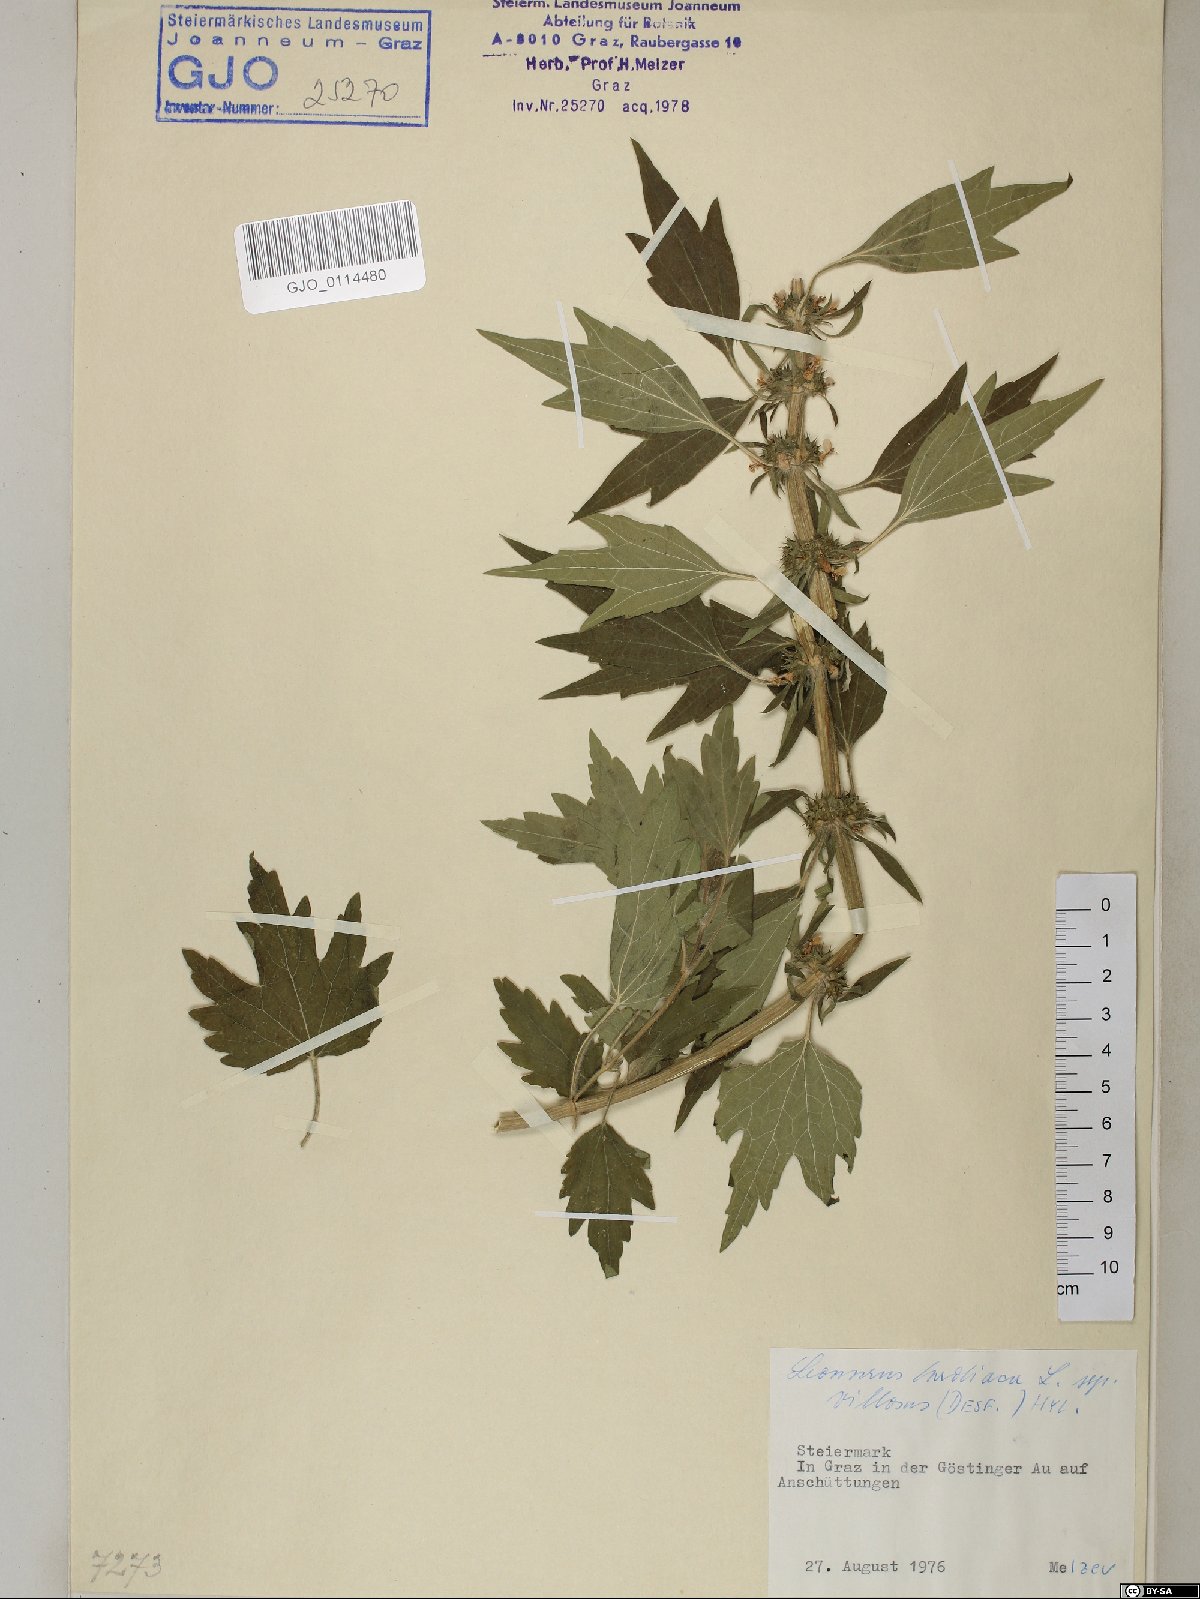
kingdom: Plantae
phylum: Tracheophyta
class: Magnoliopsida
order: Lamiales
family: Lamiaceae
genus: Leonurus
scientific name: Leonurus quinquelobatus
